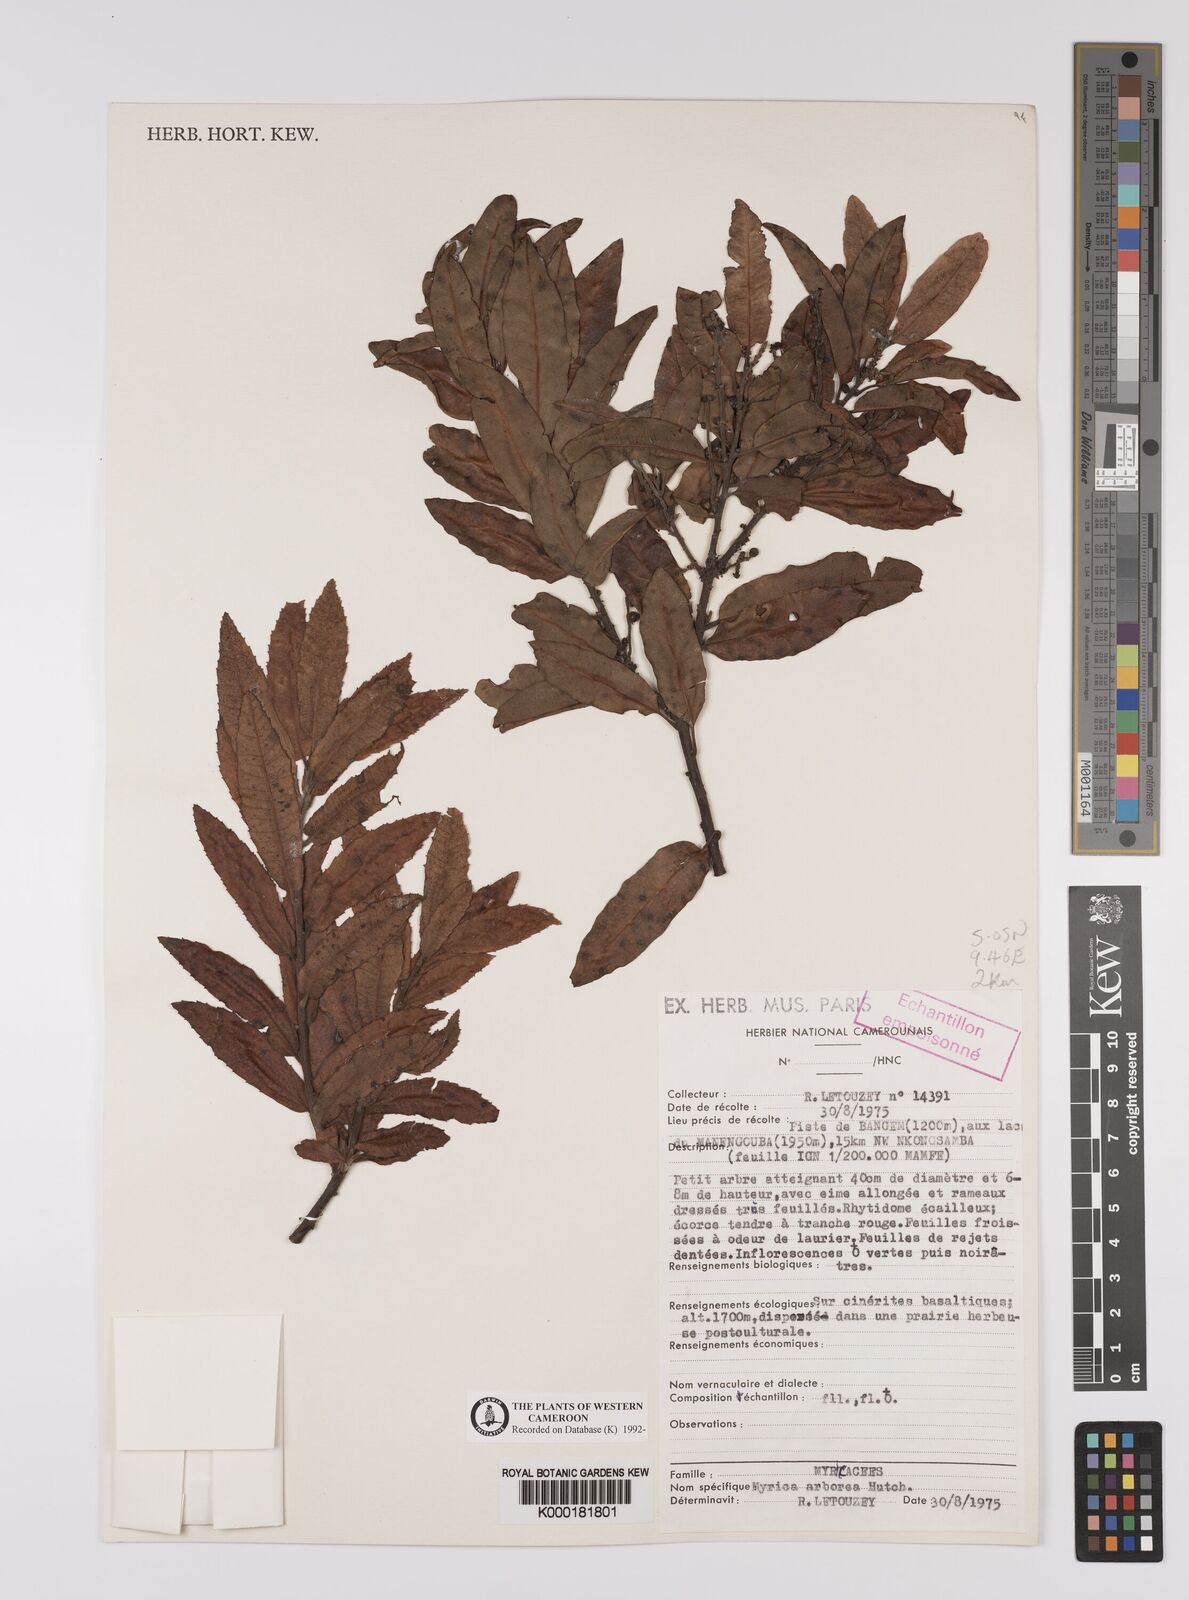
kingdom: Plantae
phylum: Tracheophyta
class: Magnoliopsida
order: Fagales
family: Myricaceae
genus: Morella
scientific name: Morella arborea
